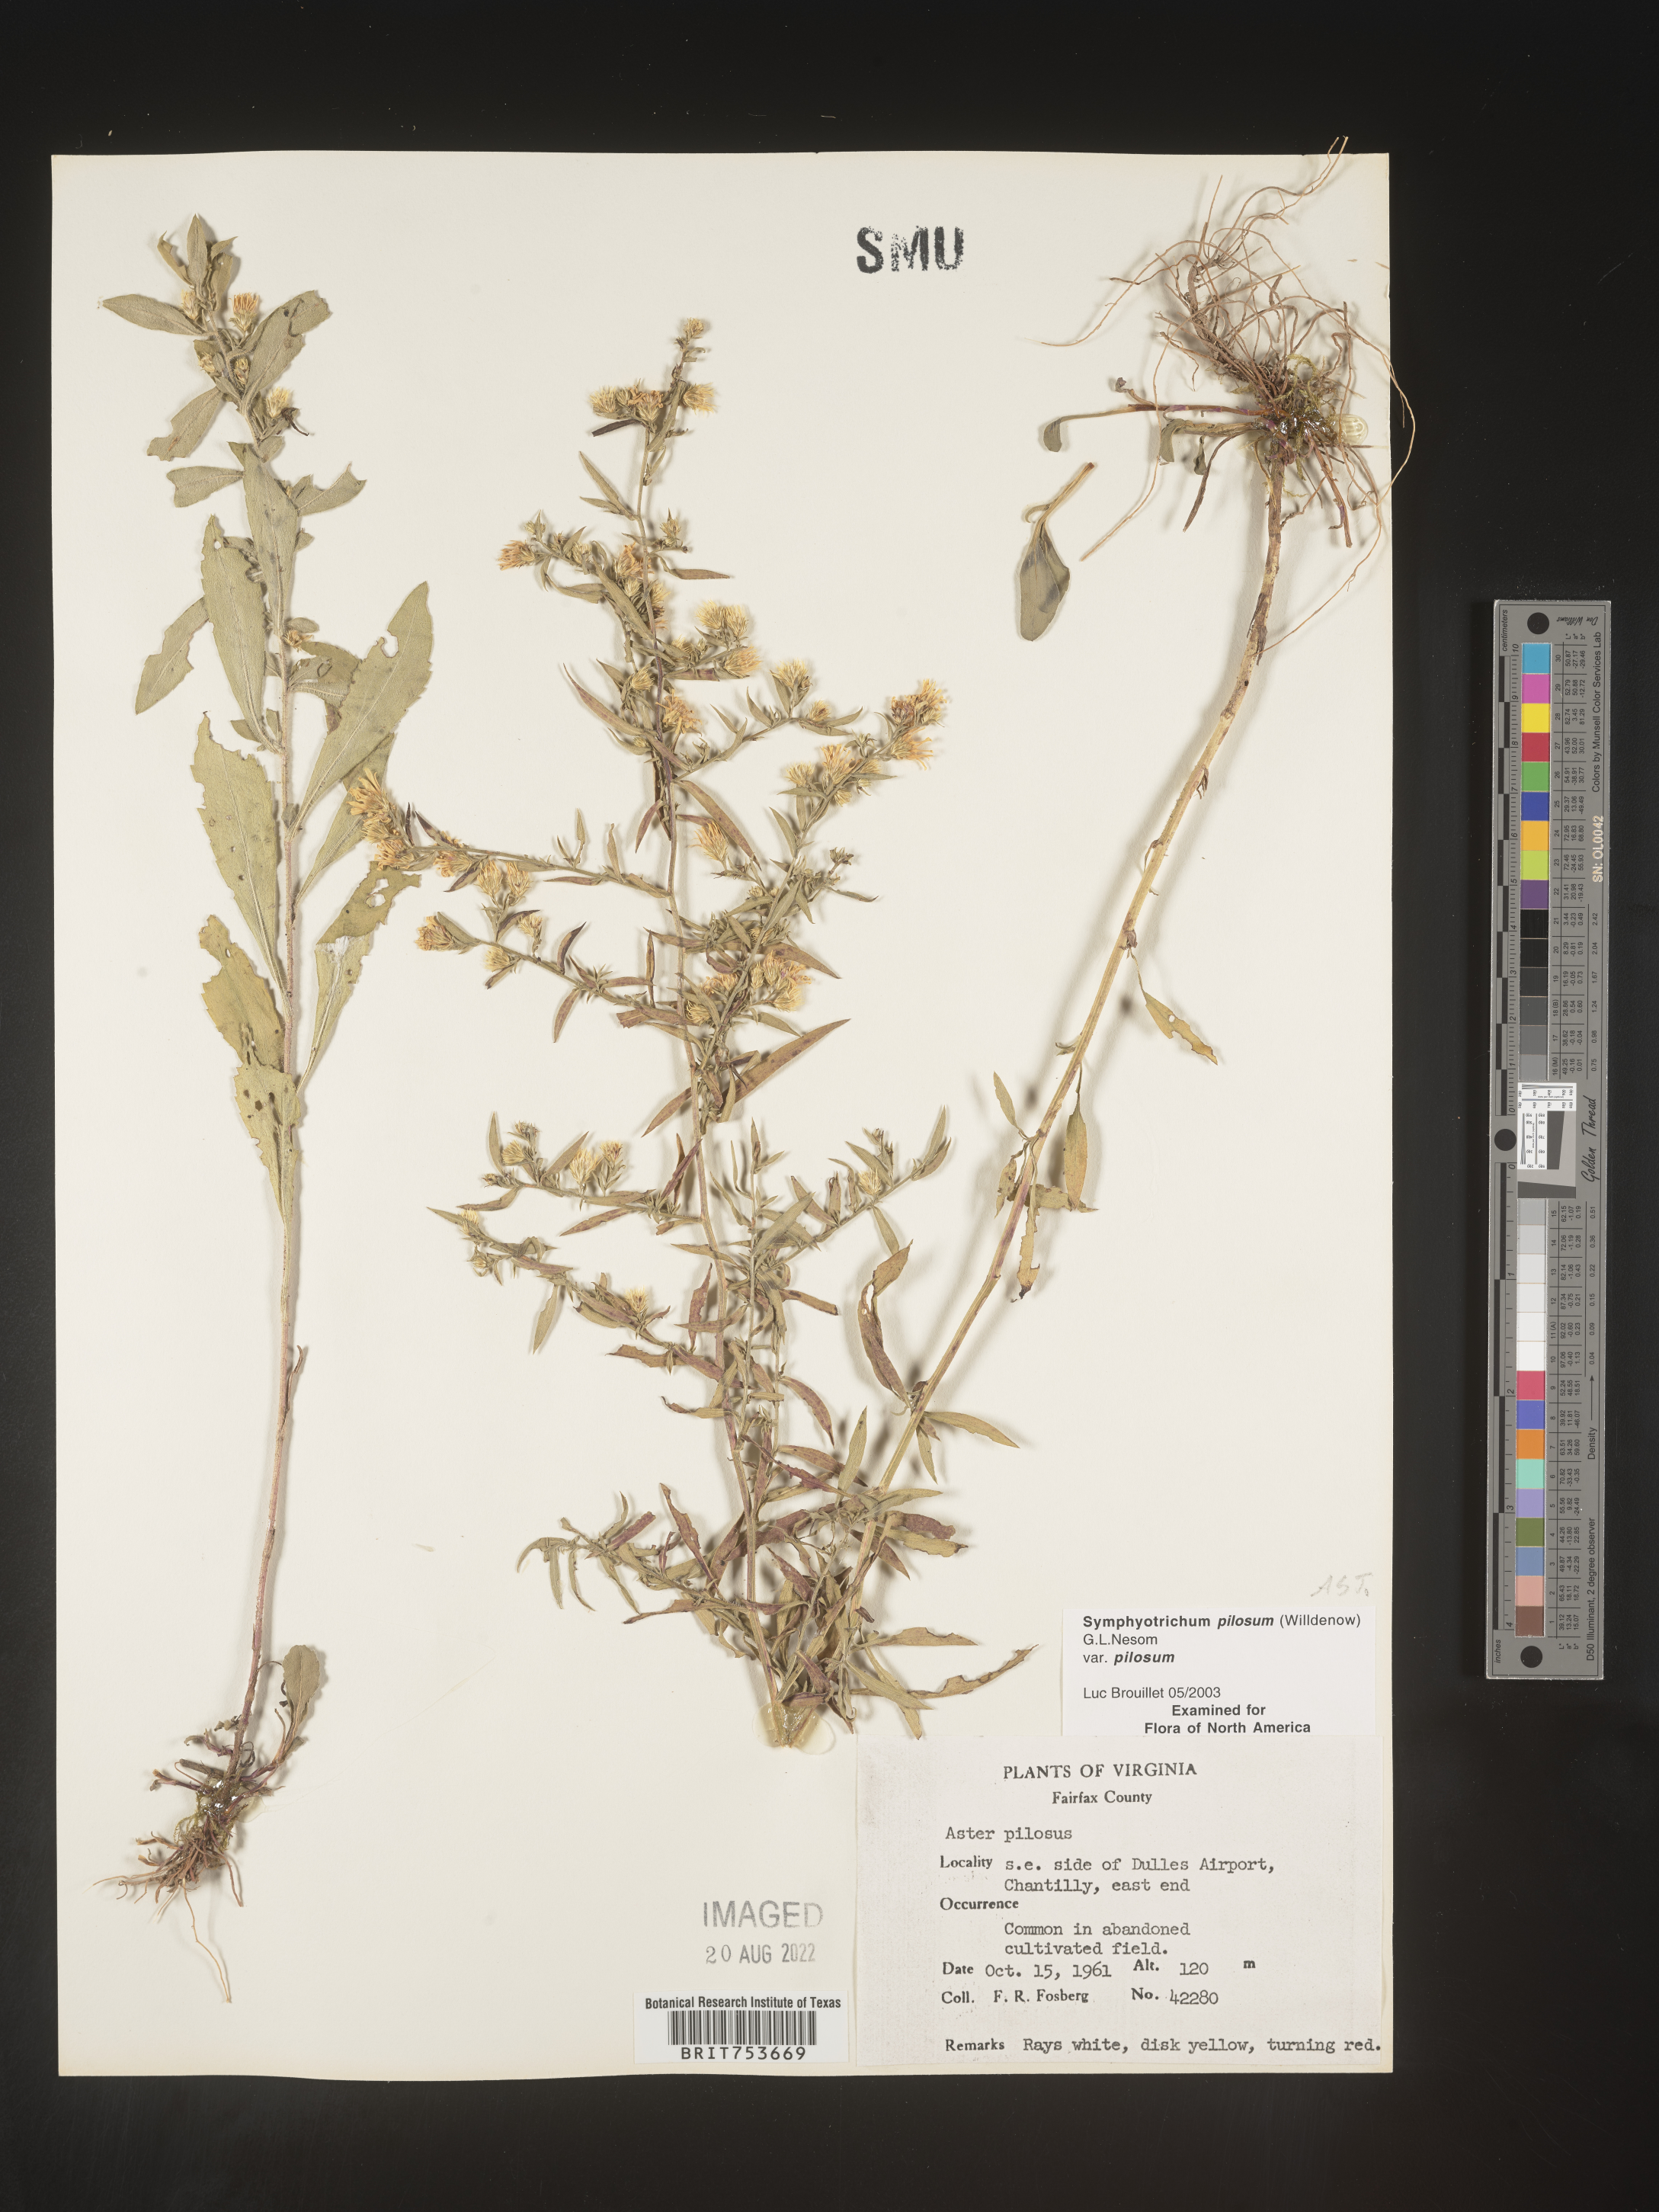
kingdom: Plantae
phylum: Tracheophyta
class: Magnoliopsida
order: Asterales
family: Asteraceae
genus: Symphyotrichum
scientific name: Symphyotrichum pilosum
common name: Awl aster
